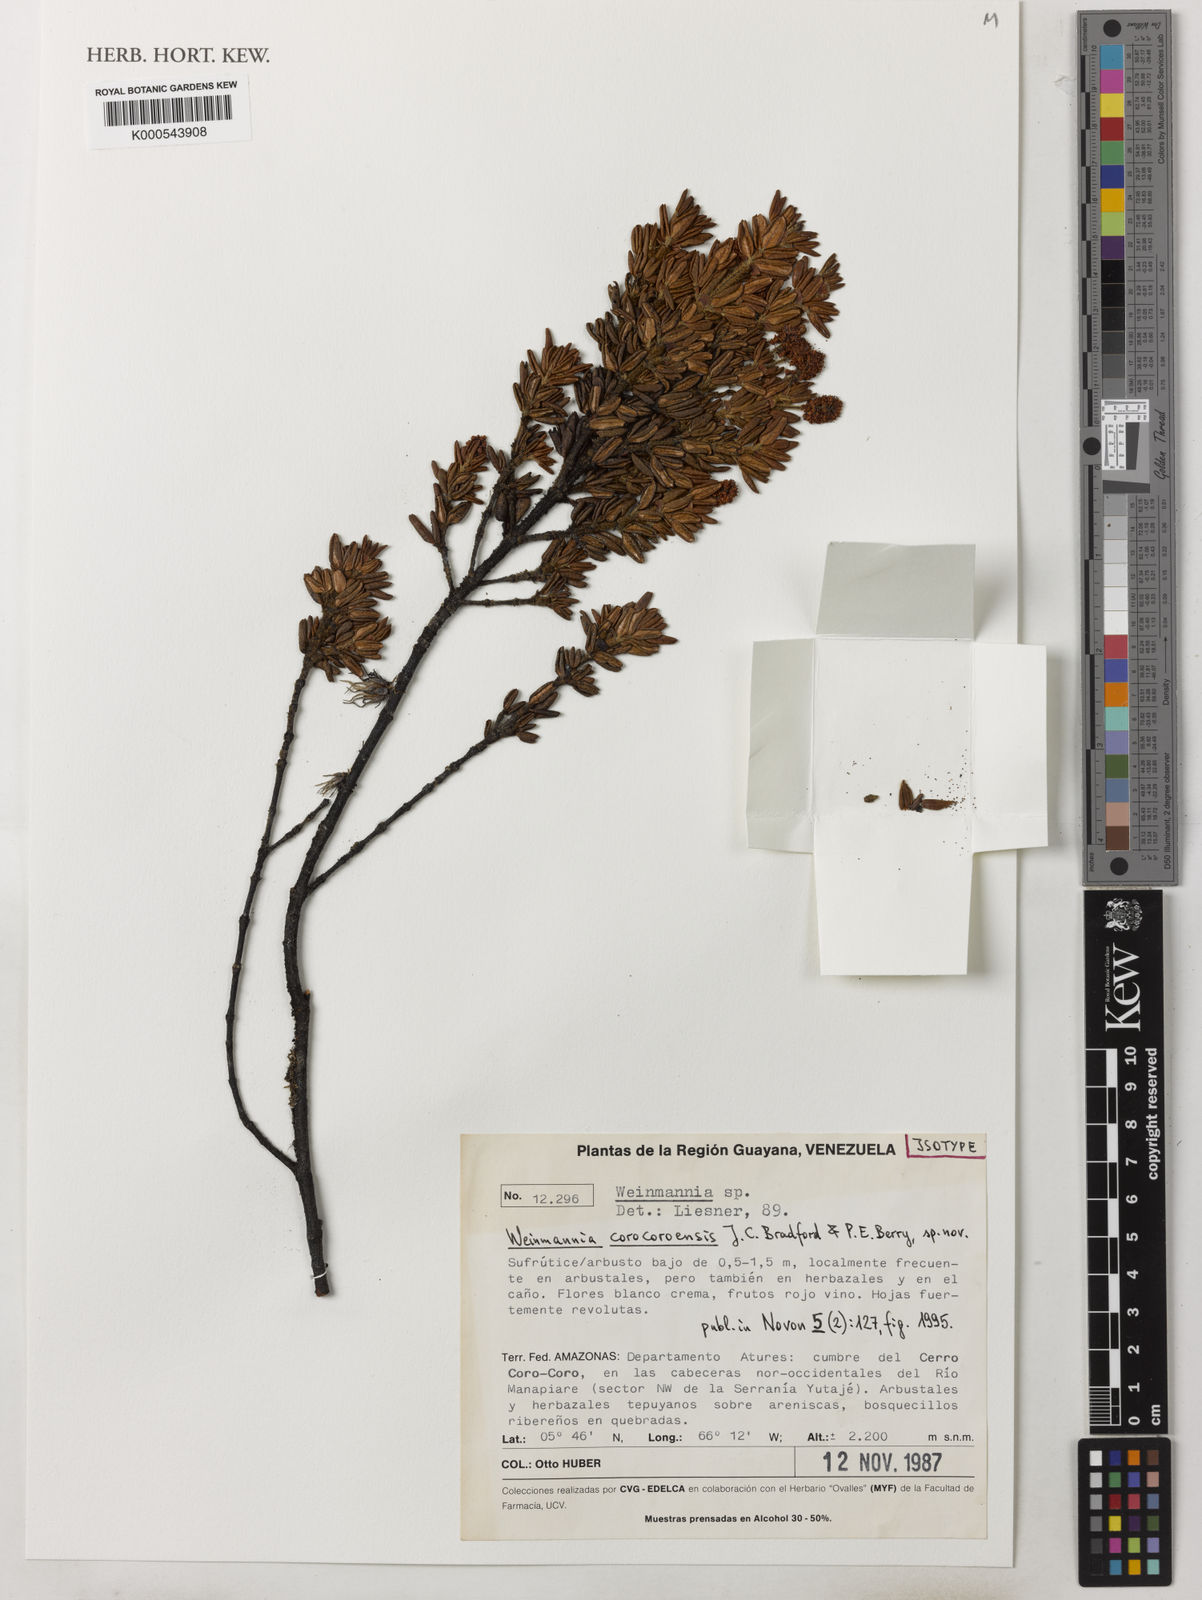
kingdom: Plantae
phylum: Tracheophyta
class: Magnoliopsida
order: Oxalidales
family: Cunoniaceae
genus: Weinmannia
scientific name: Weinmannia corocoroensis
